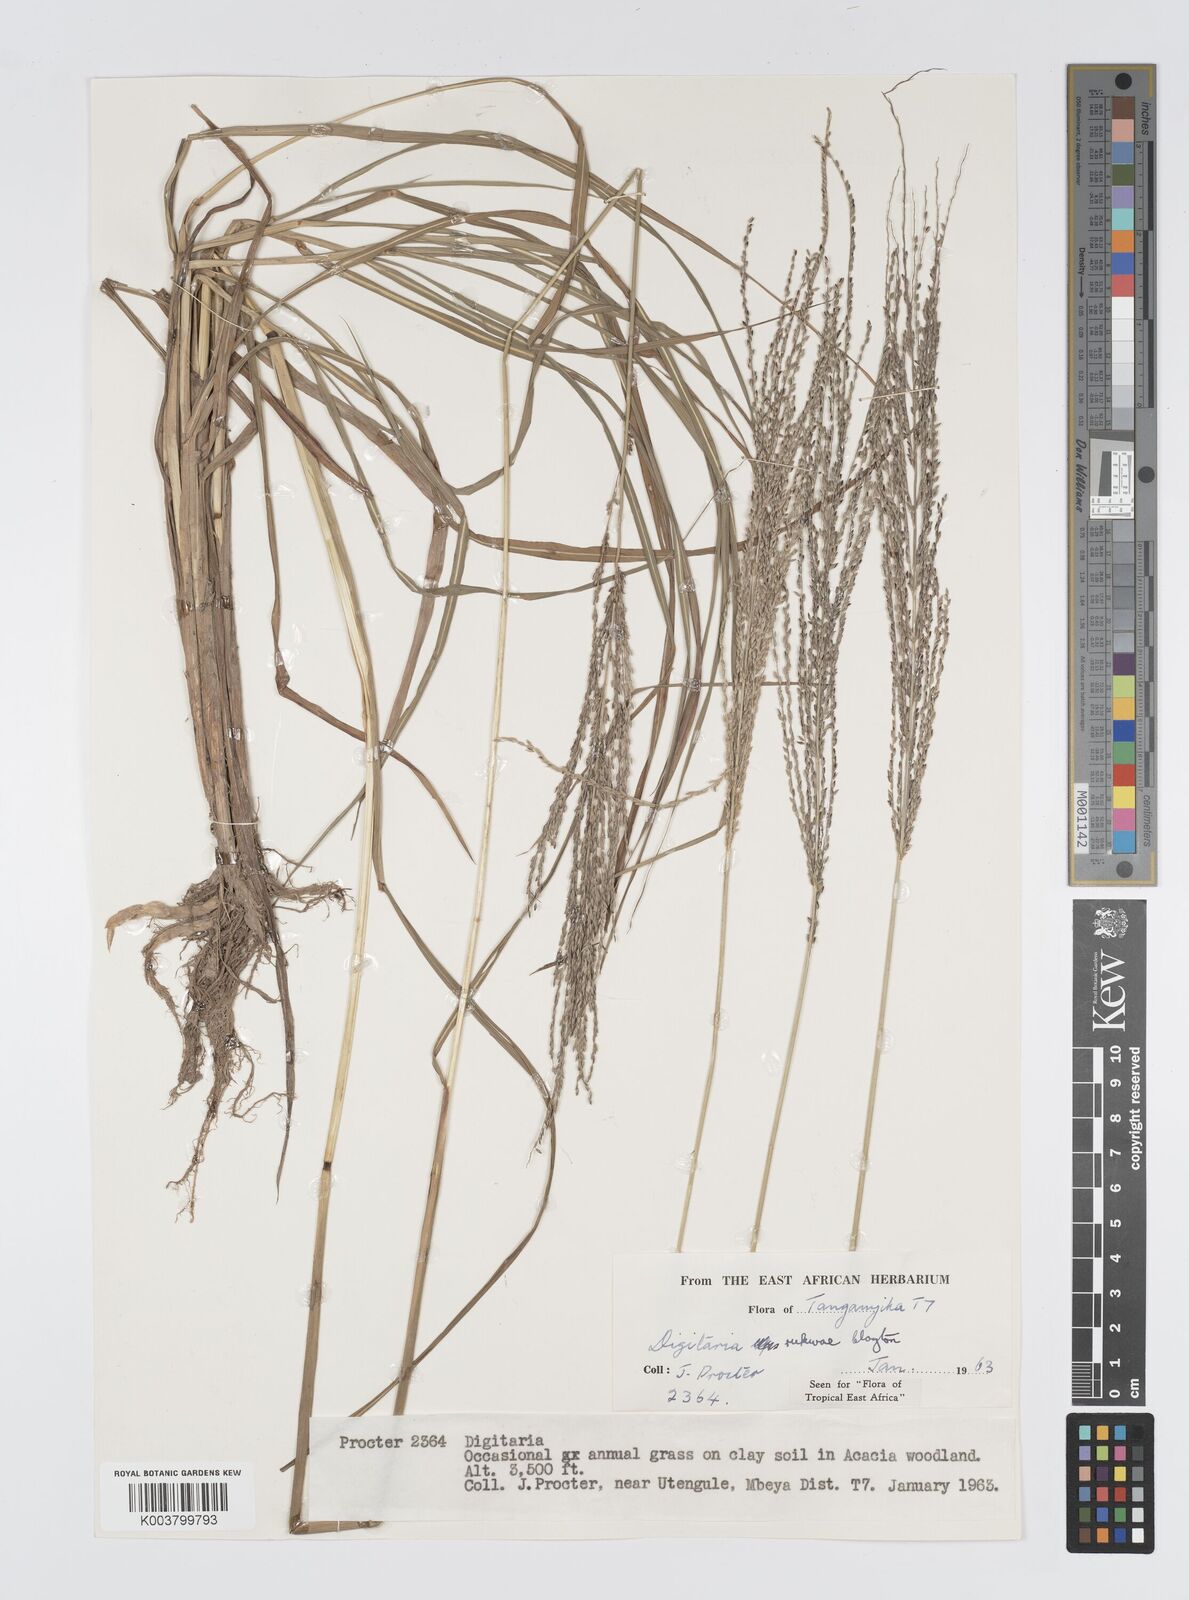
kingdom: Plantae
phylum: Tracheophyta
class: Liliopsida
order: Poales
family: Poaceae
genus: Digitaria
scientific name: Digitaria rukwae
